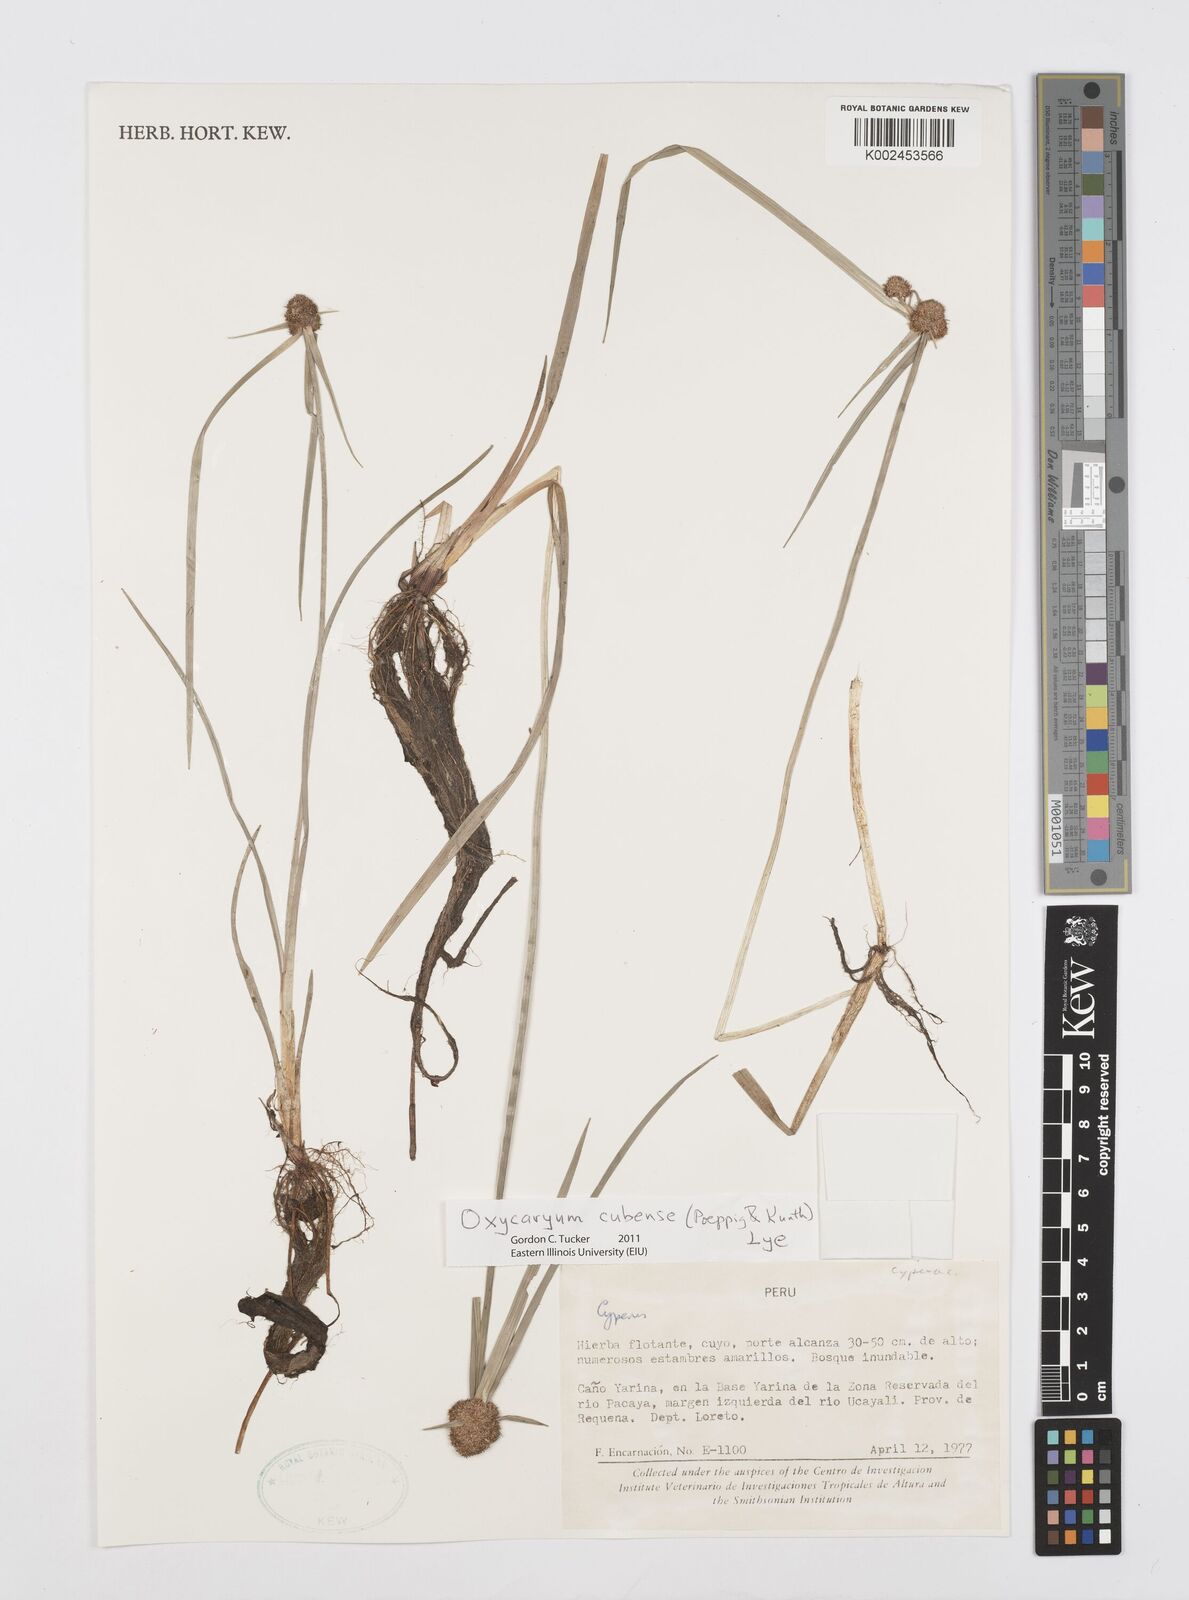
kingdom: Plantae
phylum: Tracheophyta
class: Liliopsida
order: Poales
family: Cyperaceae
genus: Cyperus
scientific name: Cyperus elegans
